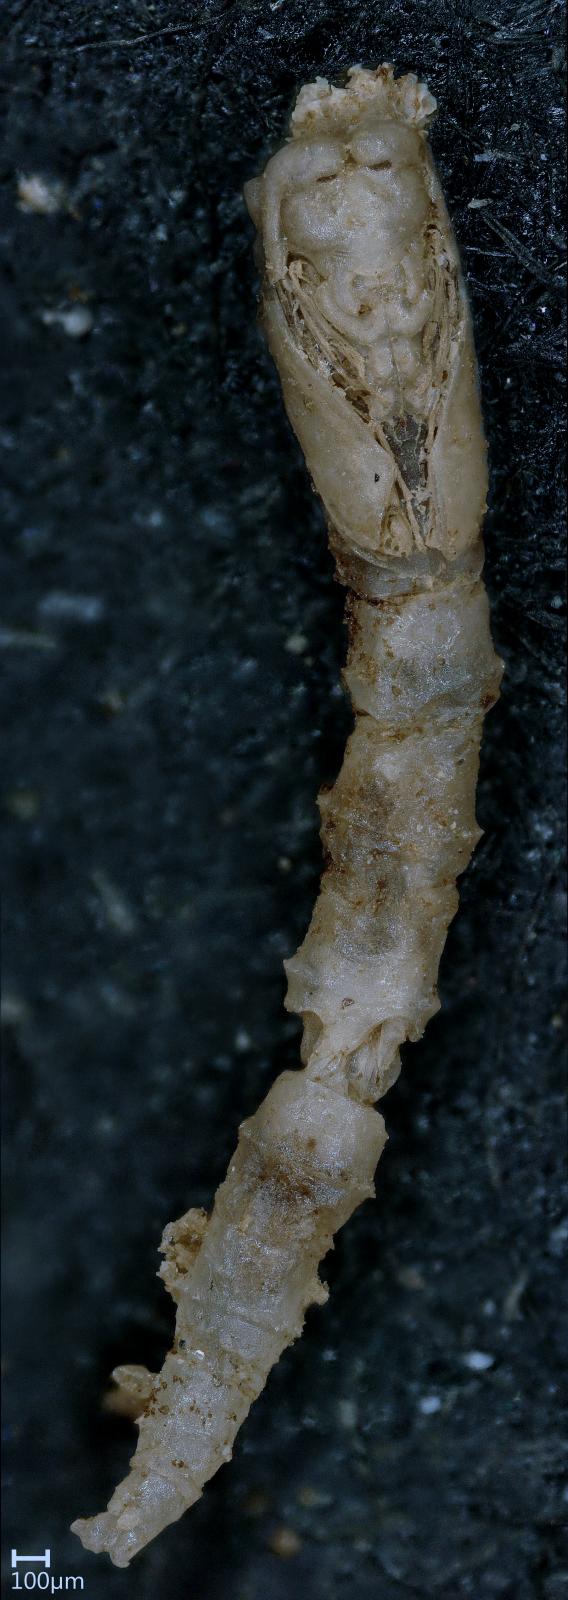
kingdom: Animalia
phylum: Arthropoda
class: Insecta
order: Diptera
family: Ceratopogonidae
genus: Dasyhelea
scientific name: Dasyhelea
